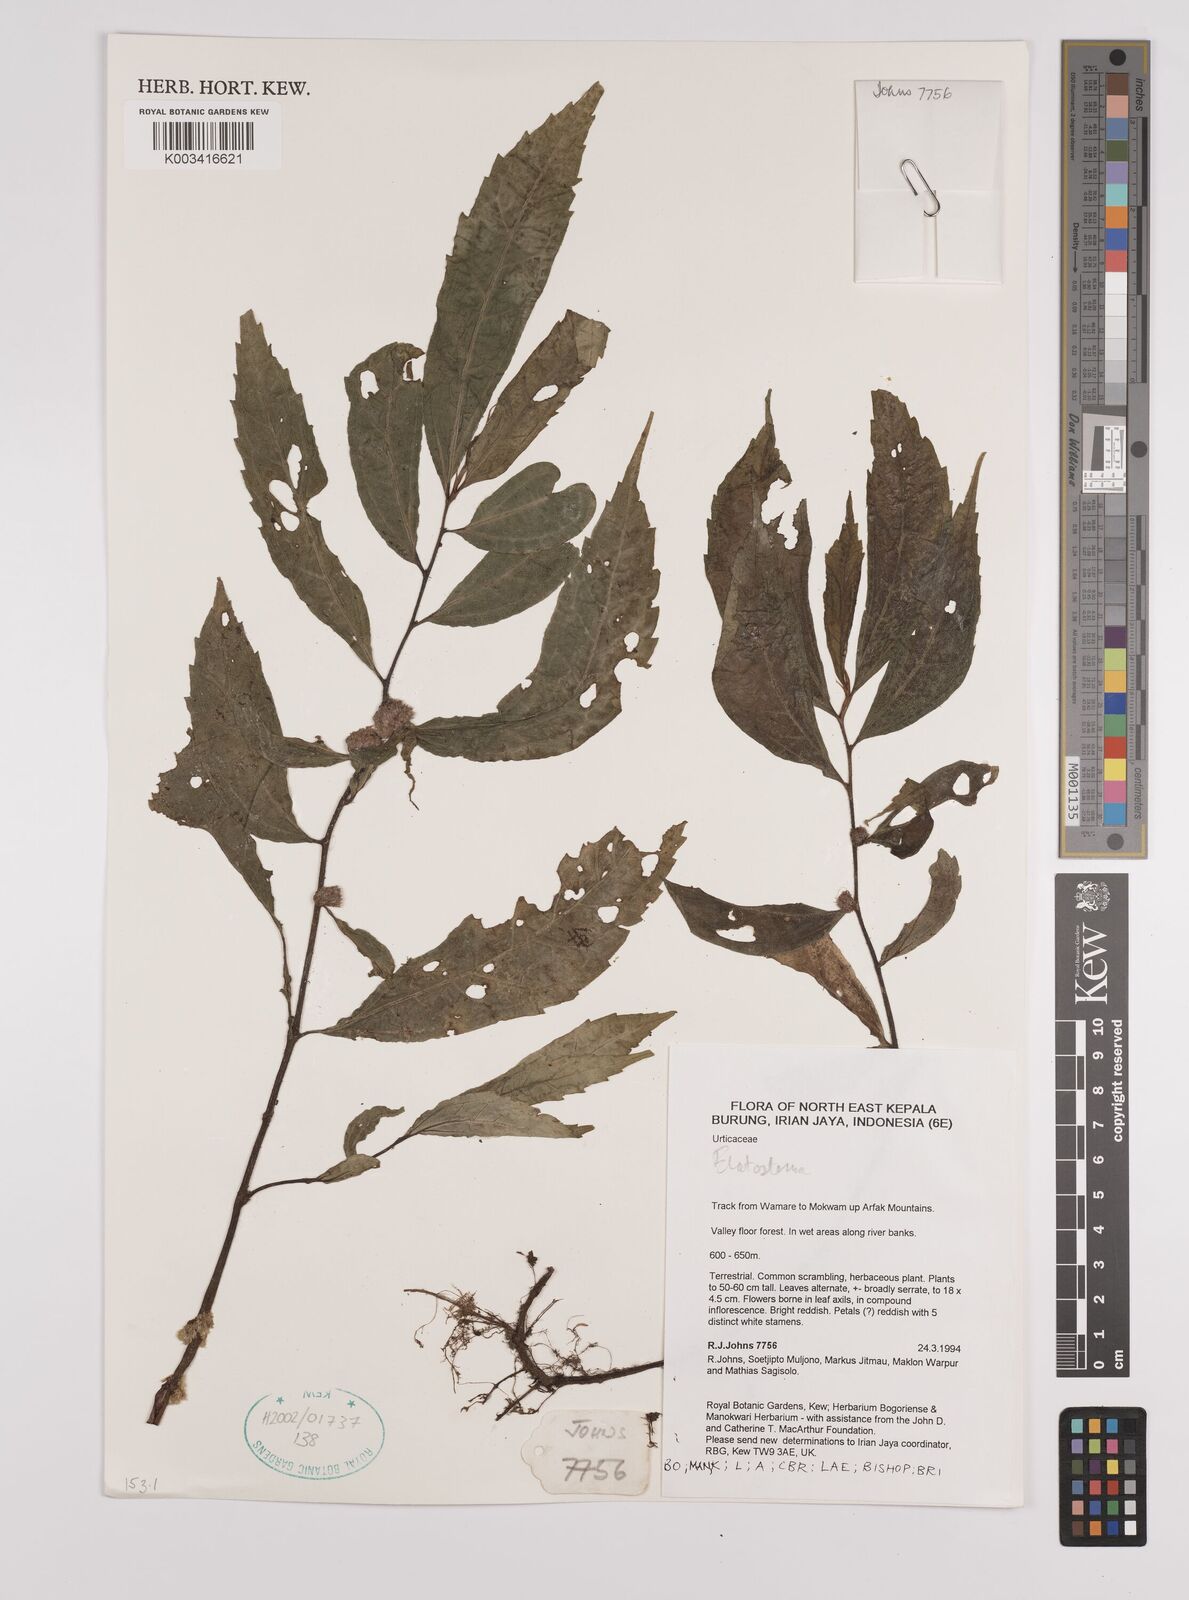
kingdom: Plantae
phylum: Tracheophyta
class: Magnoliopsida
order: Rosales
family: Urticaceae
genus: Elatostema
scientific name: Elatostema
